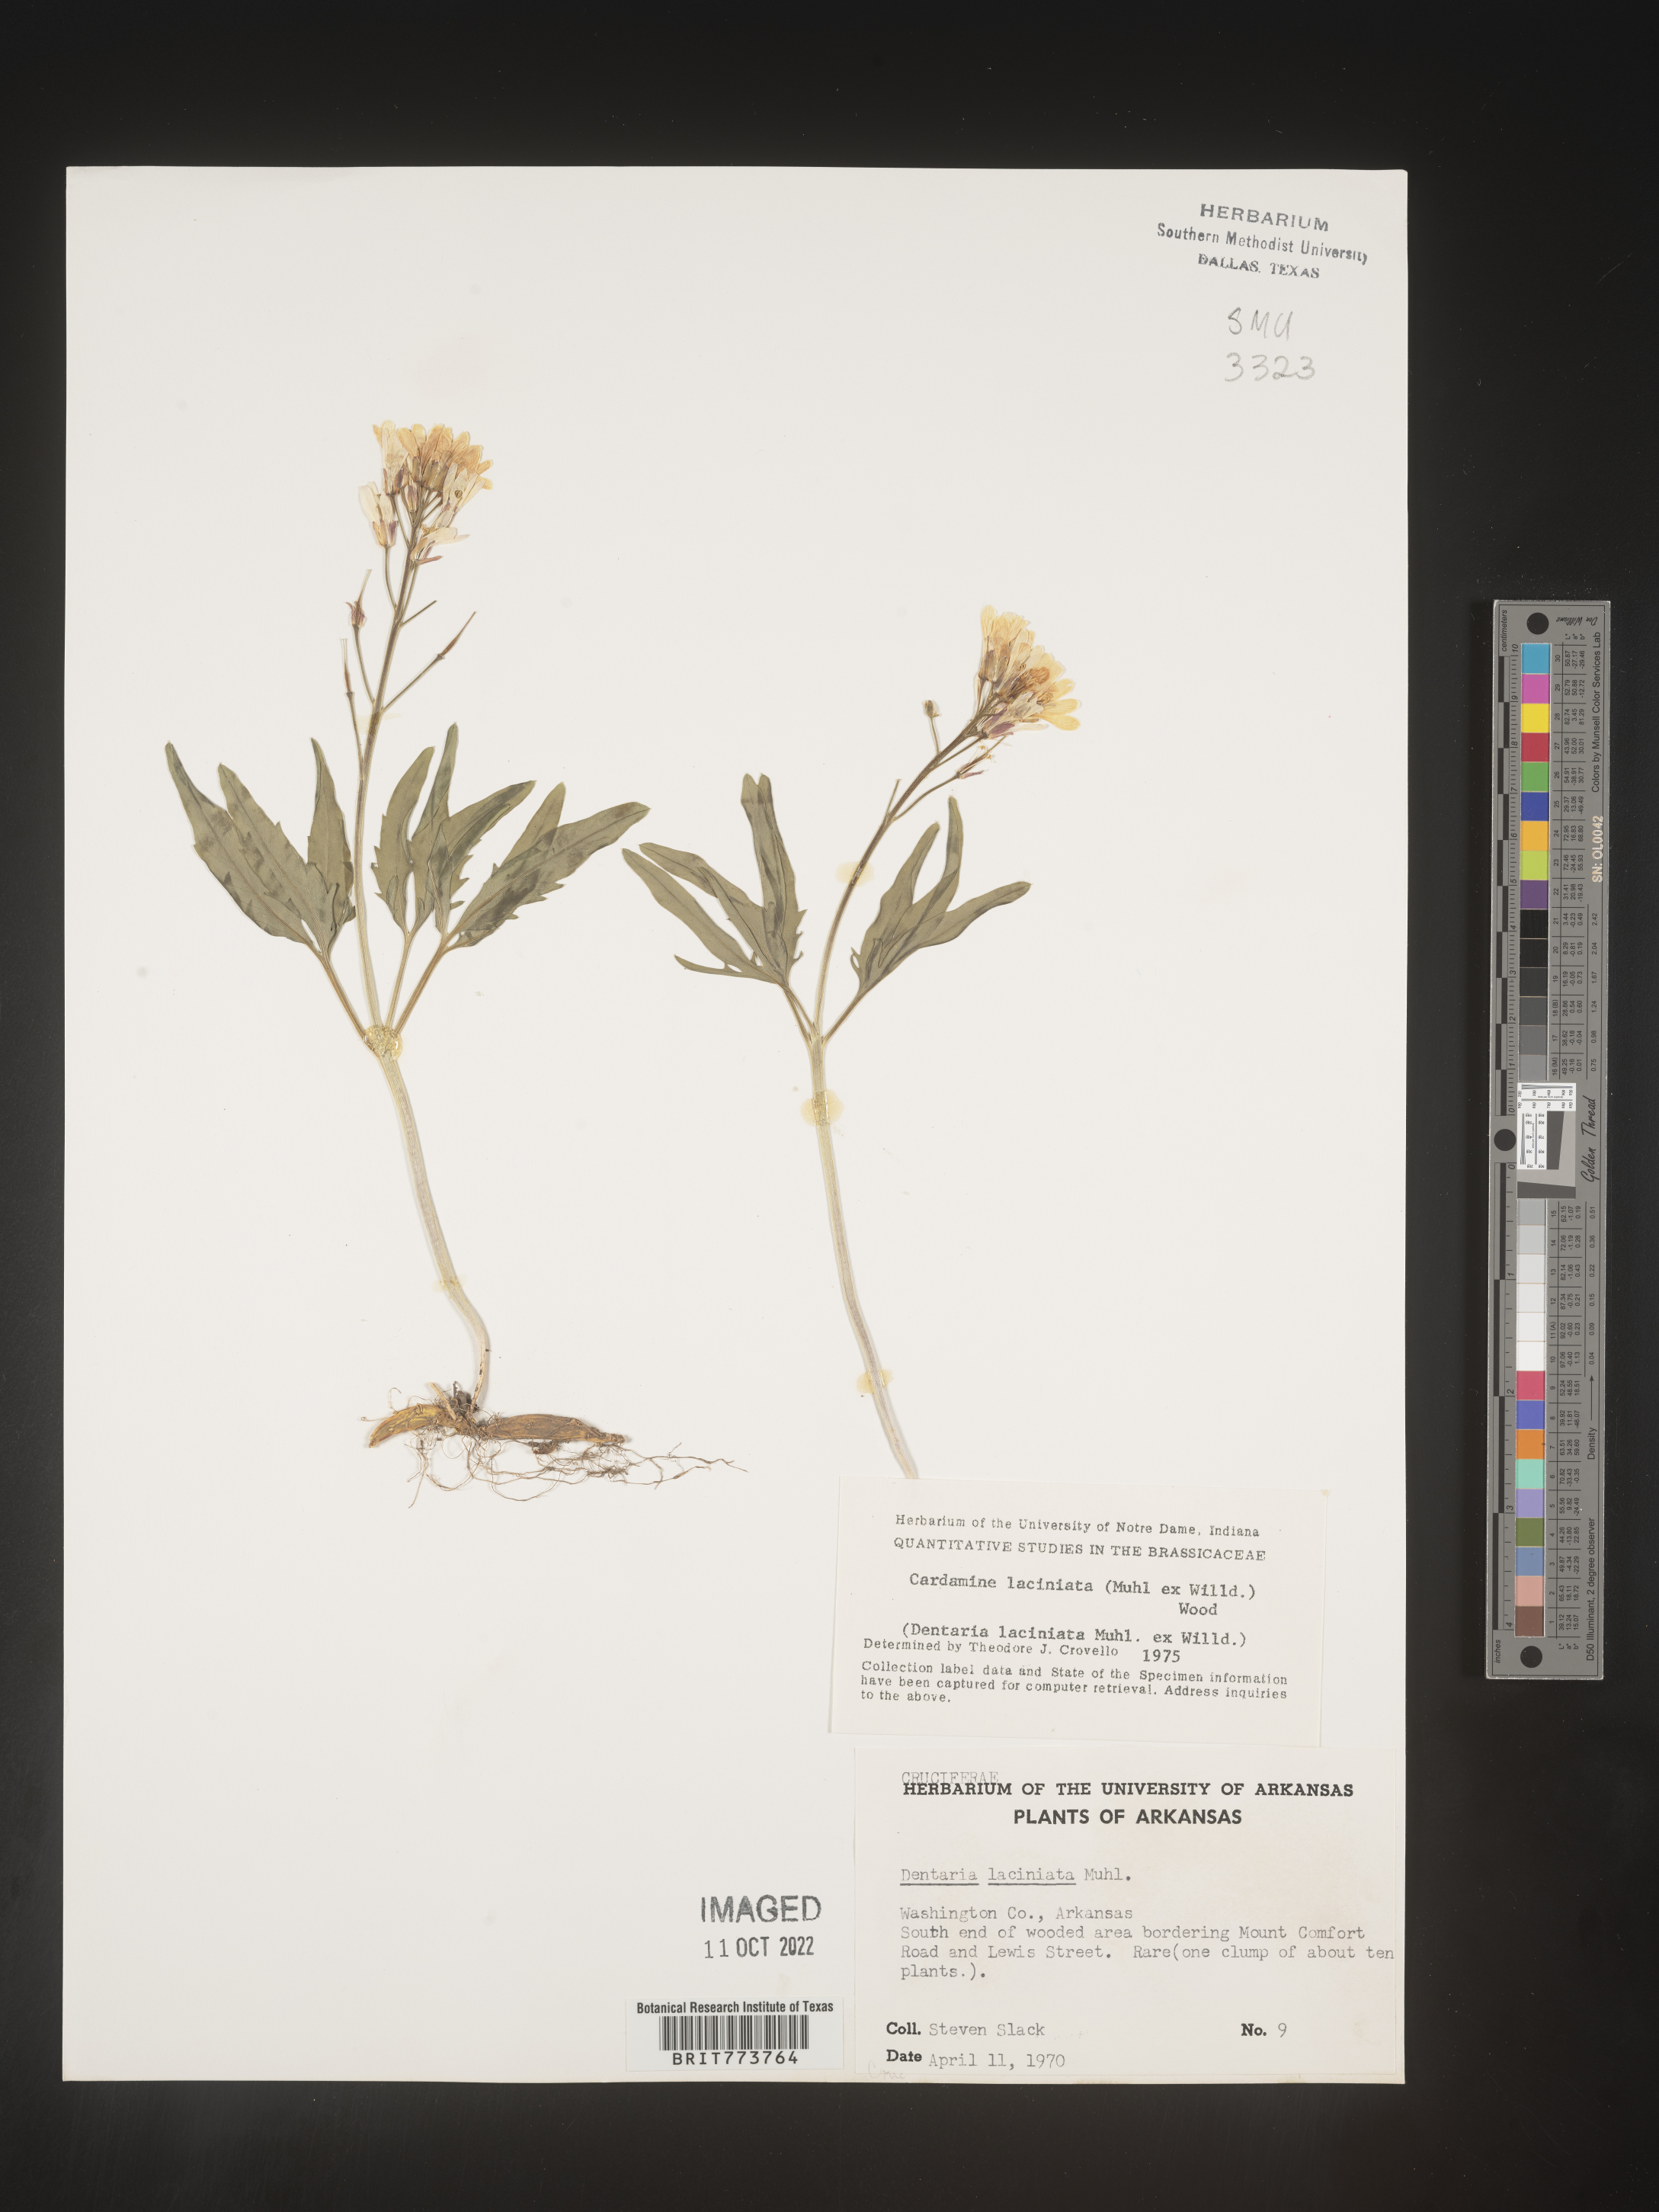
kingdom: Plantae
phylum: Tracheophyta
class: Magnoliopsida
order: Brassicales
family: Brassicaceae
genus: Rorippa
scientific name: Rorippa laciniata
